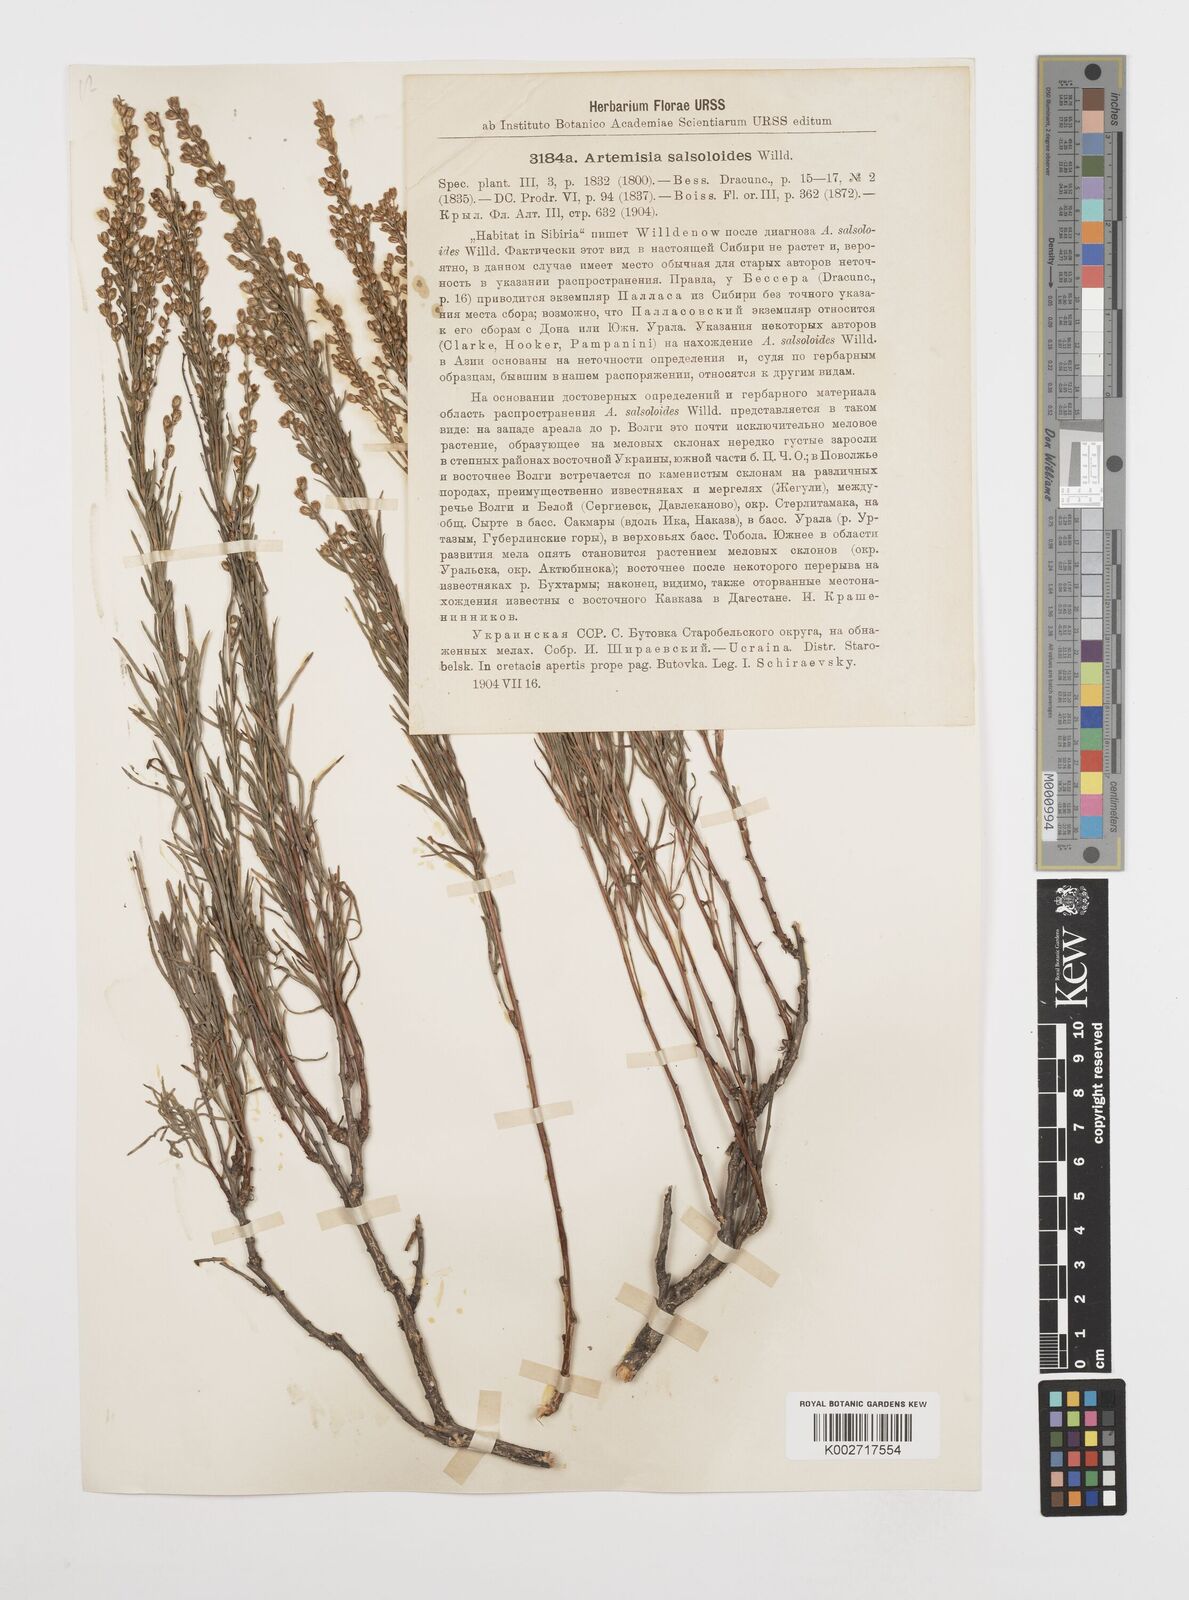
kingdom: Plantae
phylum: Tracheophyta
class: Magnoliopsida
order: Asterales
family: Asteraceae
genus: Artemisia
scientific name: Artemisia salsoloides
